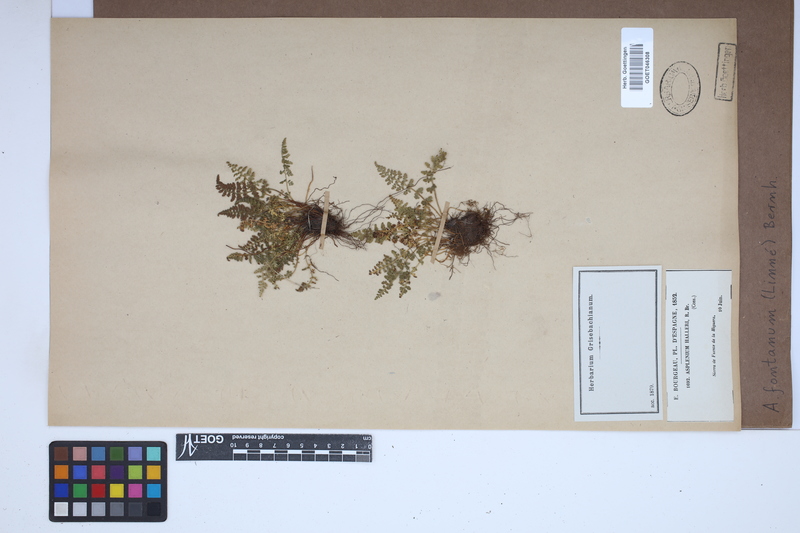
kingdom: Plantae
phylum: Tracheophyta
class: Polypodiopsida
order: Polypodiales
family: Aspleniaceae
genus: Asplenium
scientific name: Asplenium fontanum
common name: Fountain spleenwort
